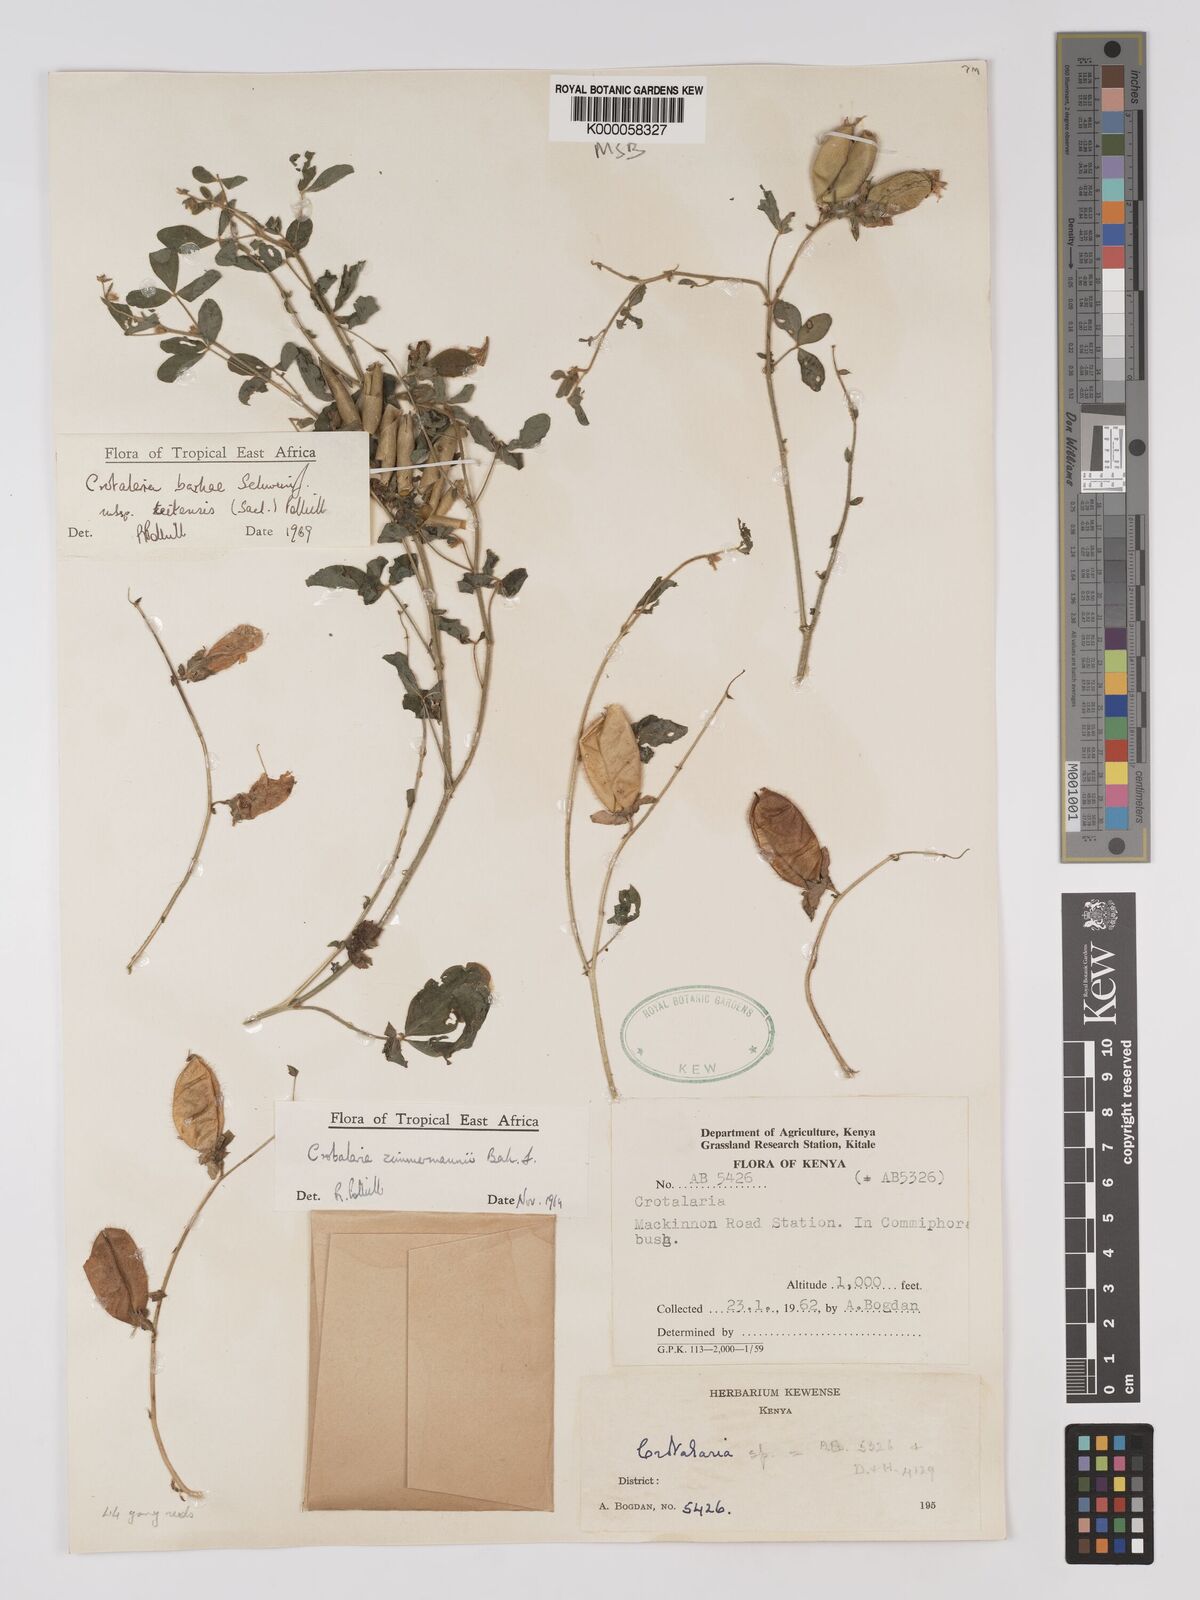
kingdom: Plantae
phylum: Tracheophyta
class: Magnoliopsida
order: Fabales
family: Fabaceae
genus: Crotalaria
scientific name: Crotalaria barkae
